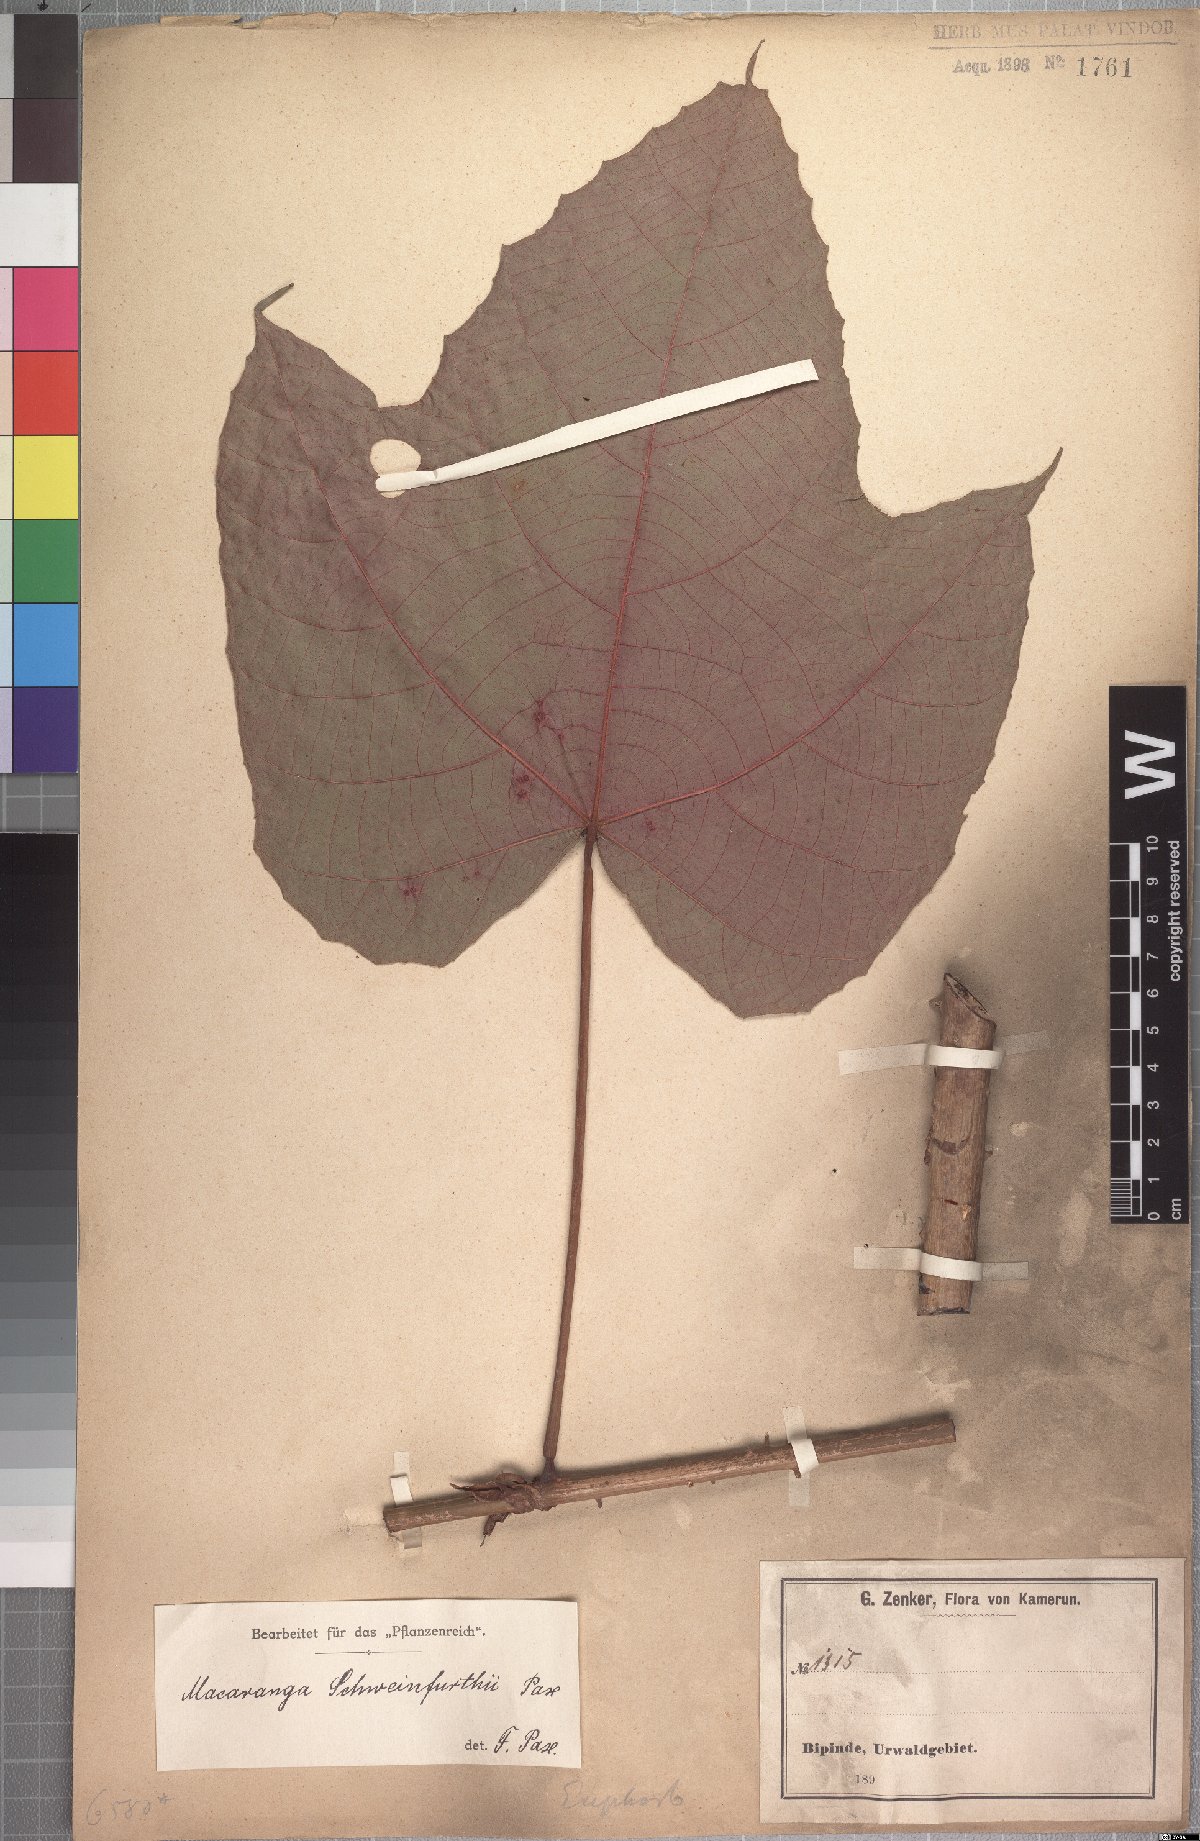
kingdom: Plantae
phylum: Tracheophyta
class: Magnoliopsida
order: Malpighiales
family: Euphorbiaceae
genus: Macaranga
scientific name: Macaranga schweinfurthii
